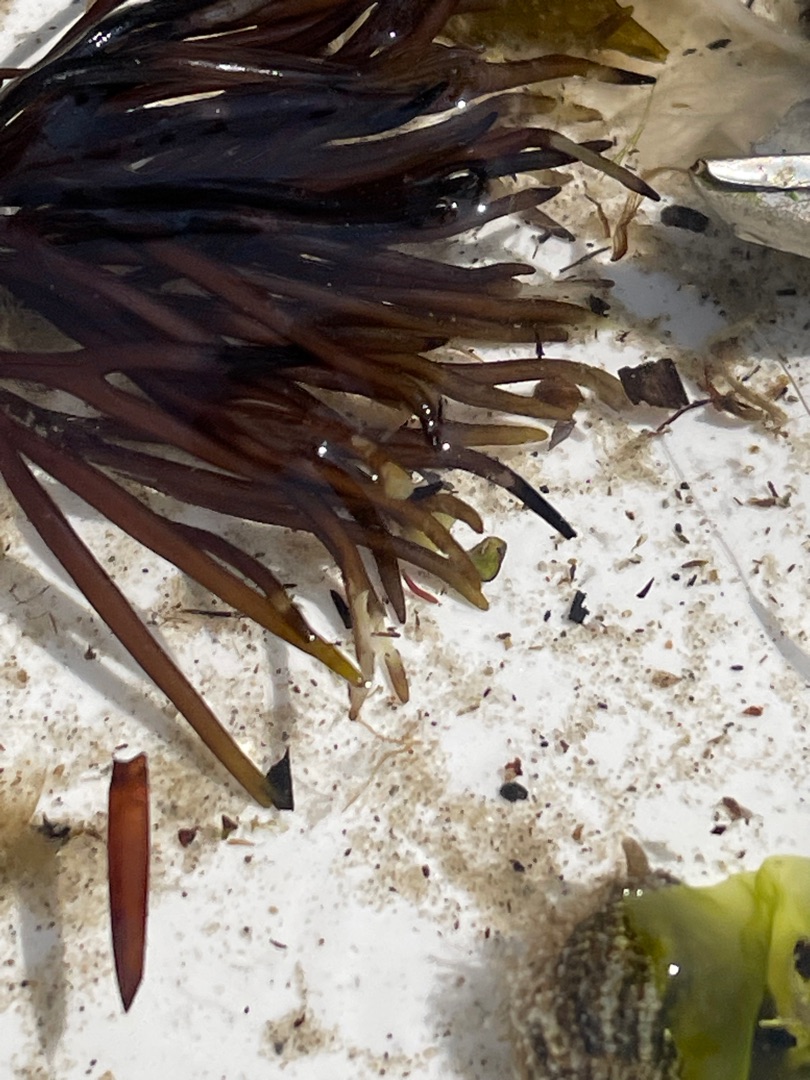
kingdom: Plantae
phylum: Rhodophyta
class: Florideophyceae
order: Gigartinales
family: Furcellariaceae
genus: Furcellaria
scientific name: Furcellaria lumbricalis
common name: Gaffeltang
